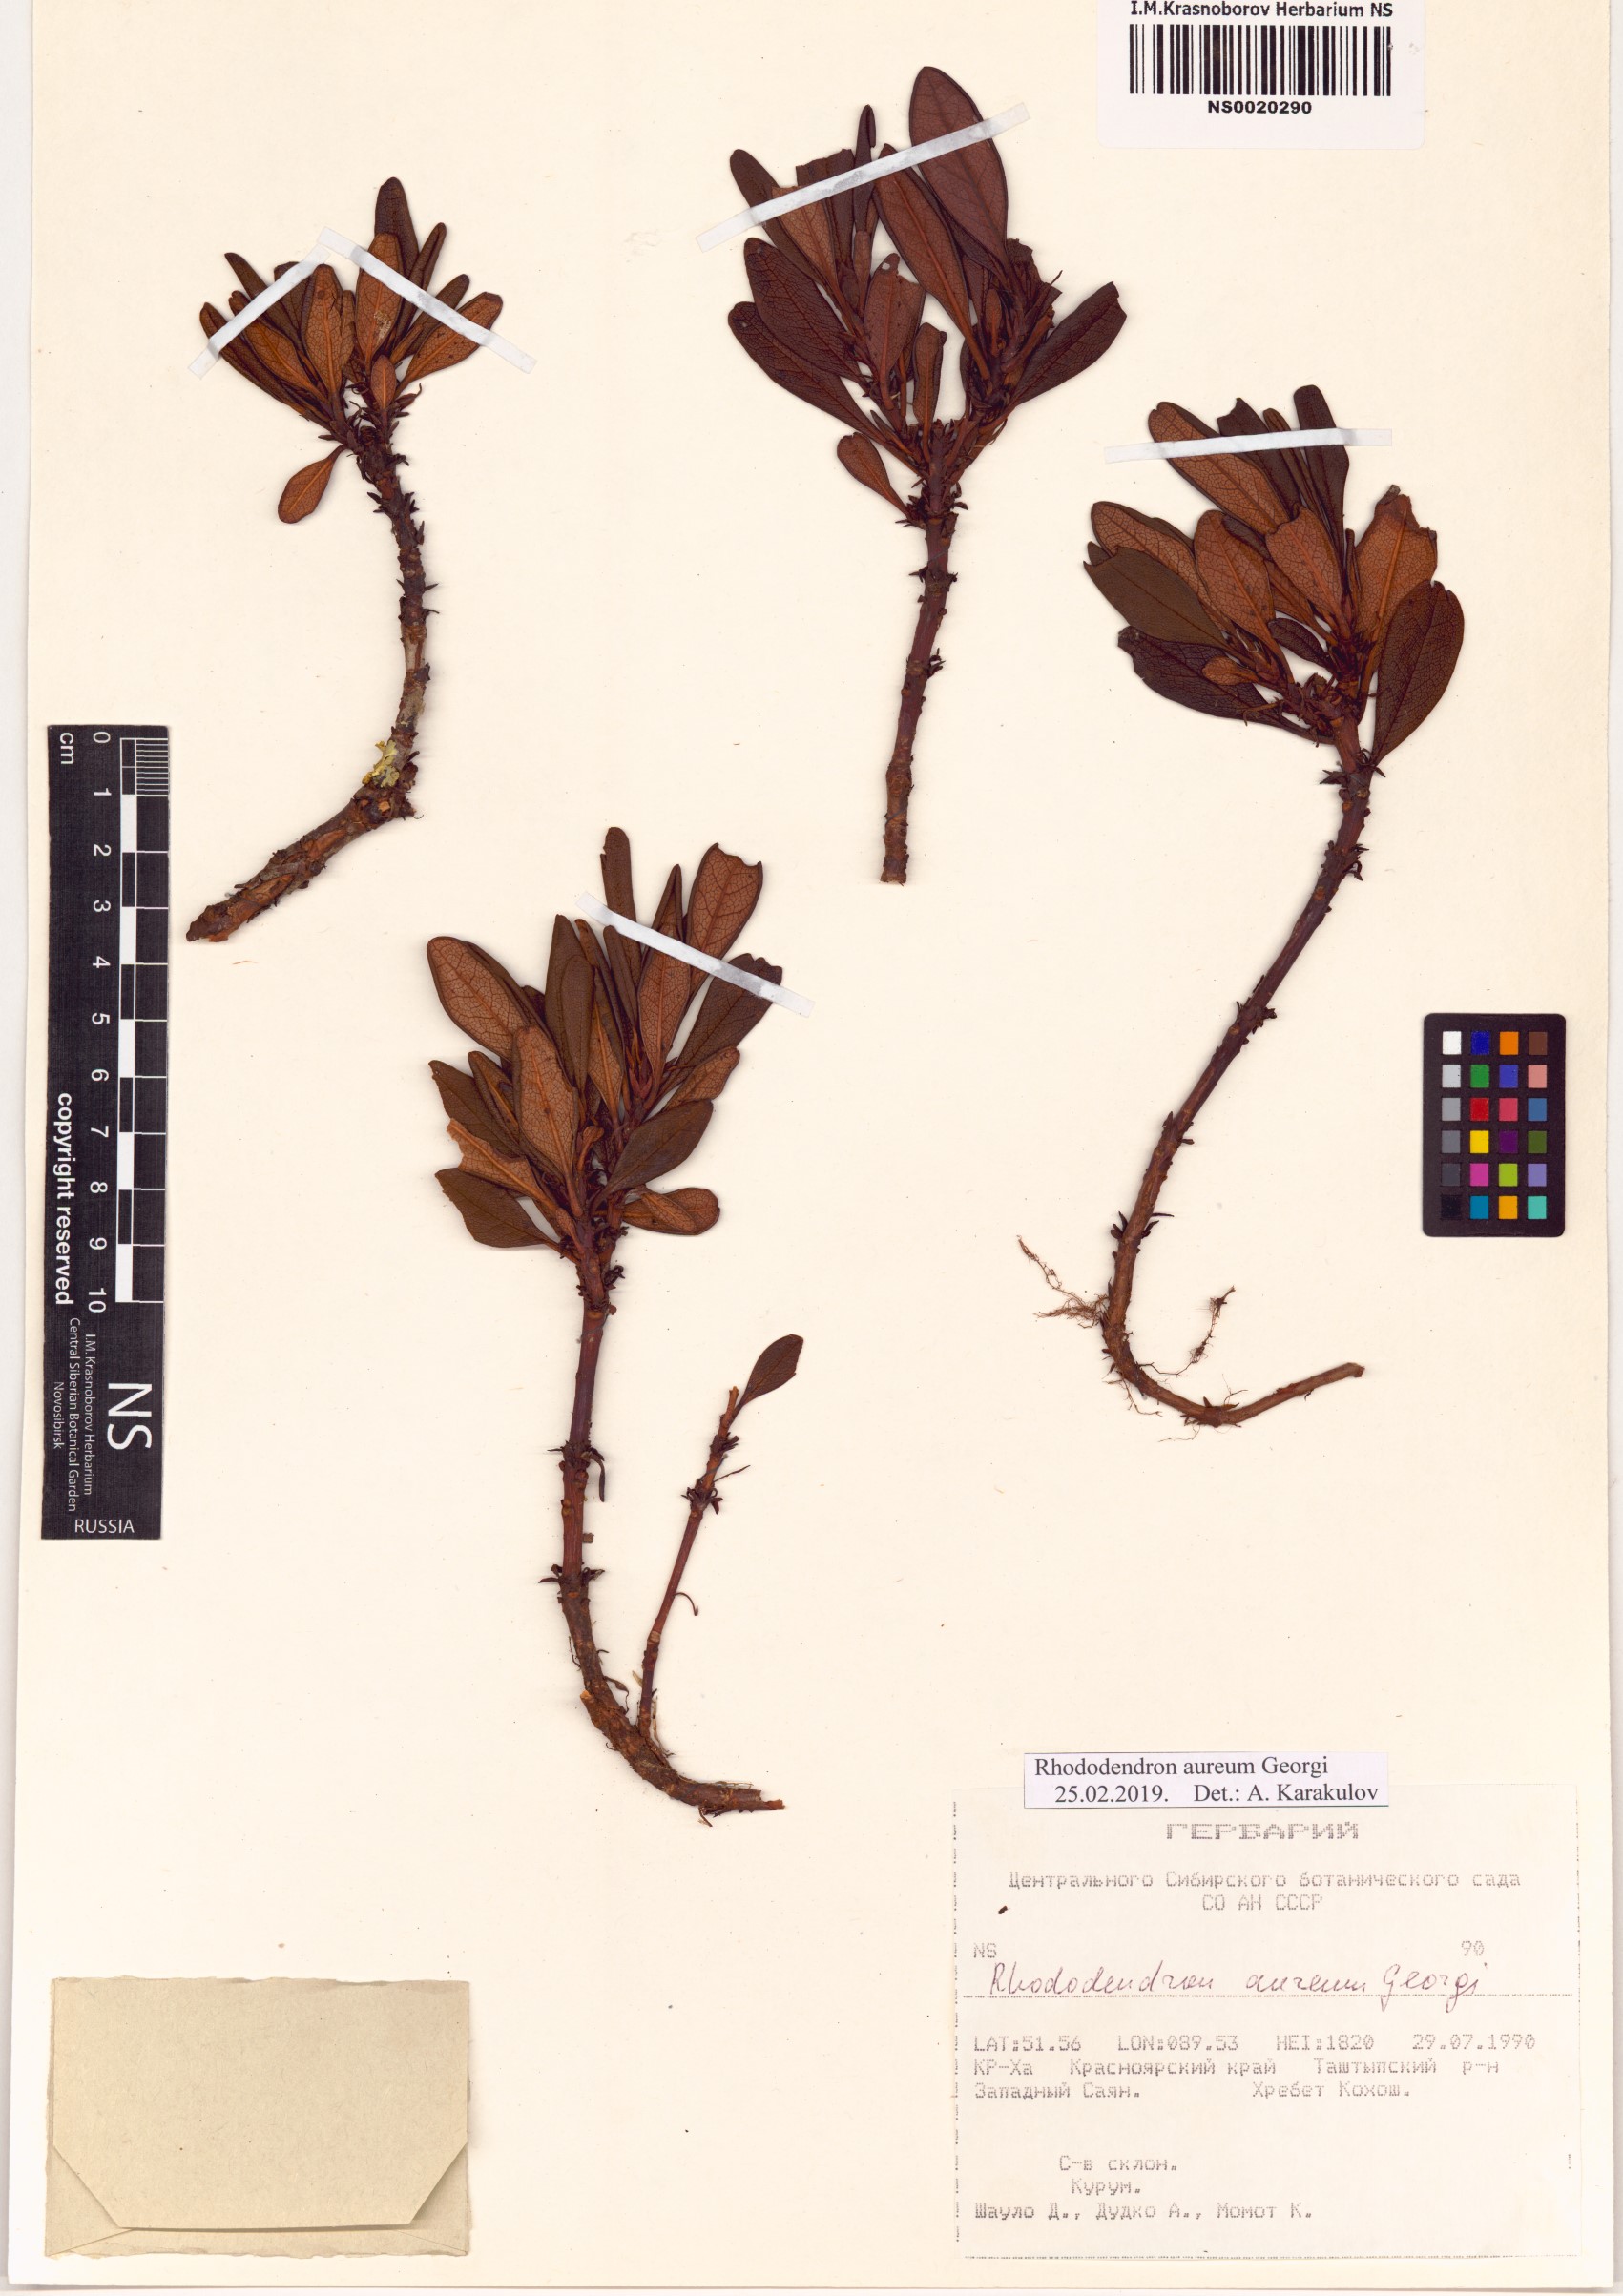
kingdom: Plantae
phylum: Tracheophyta
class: Magnoliopsida
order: Ericales
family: Ericaceae
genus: Rhododendron
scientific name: Rhododendron aureum
